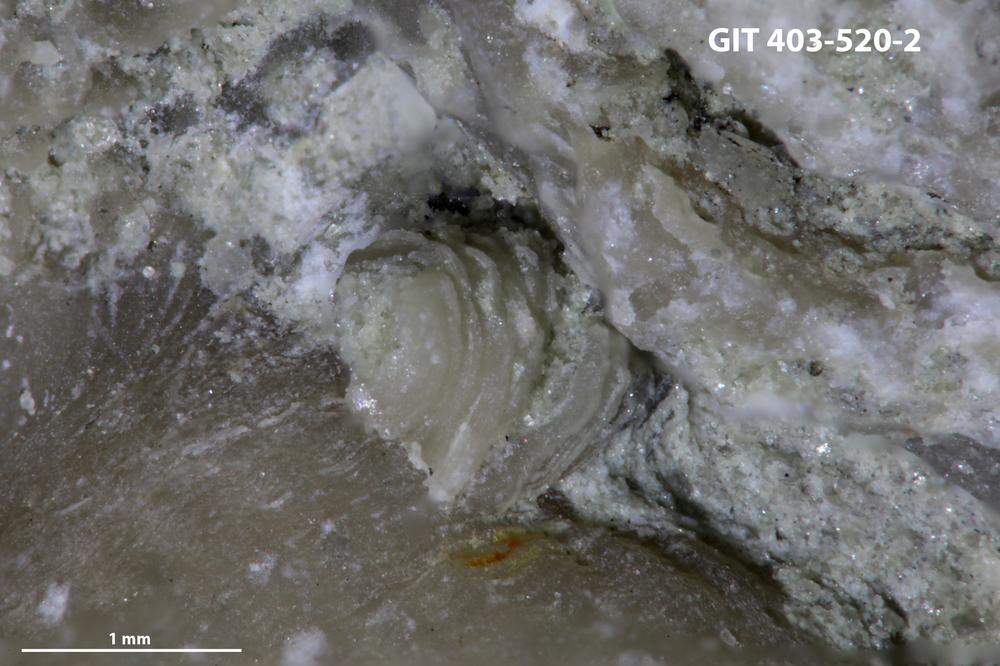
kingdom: Animalia
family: Cornulitidae
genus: Conchicolites
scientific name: Conchicolites
